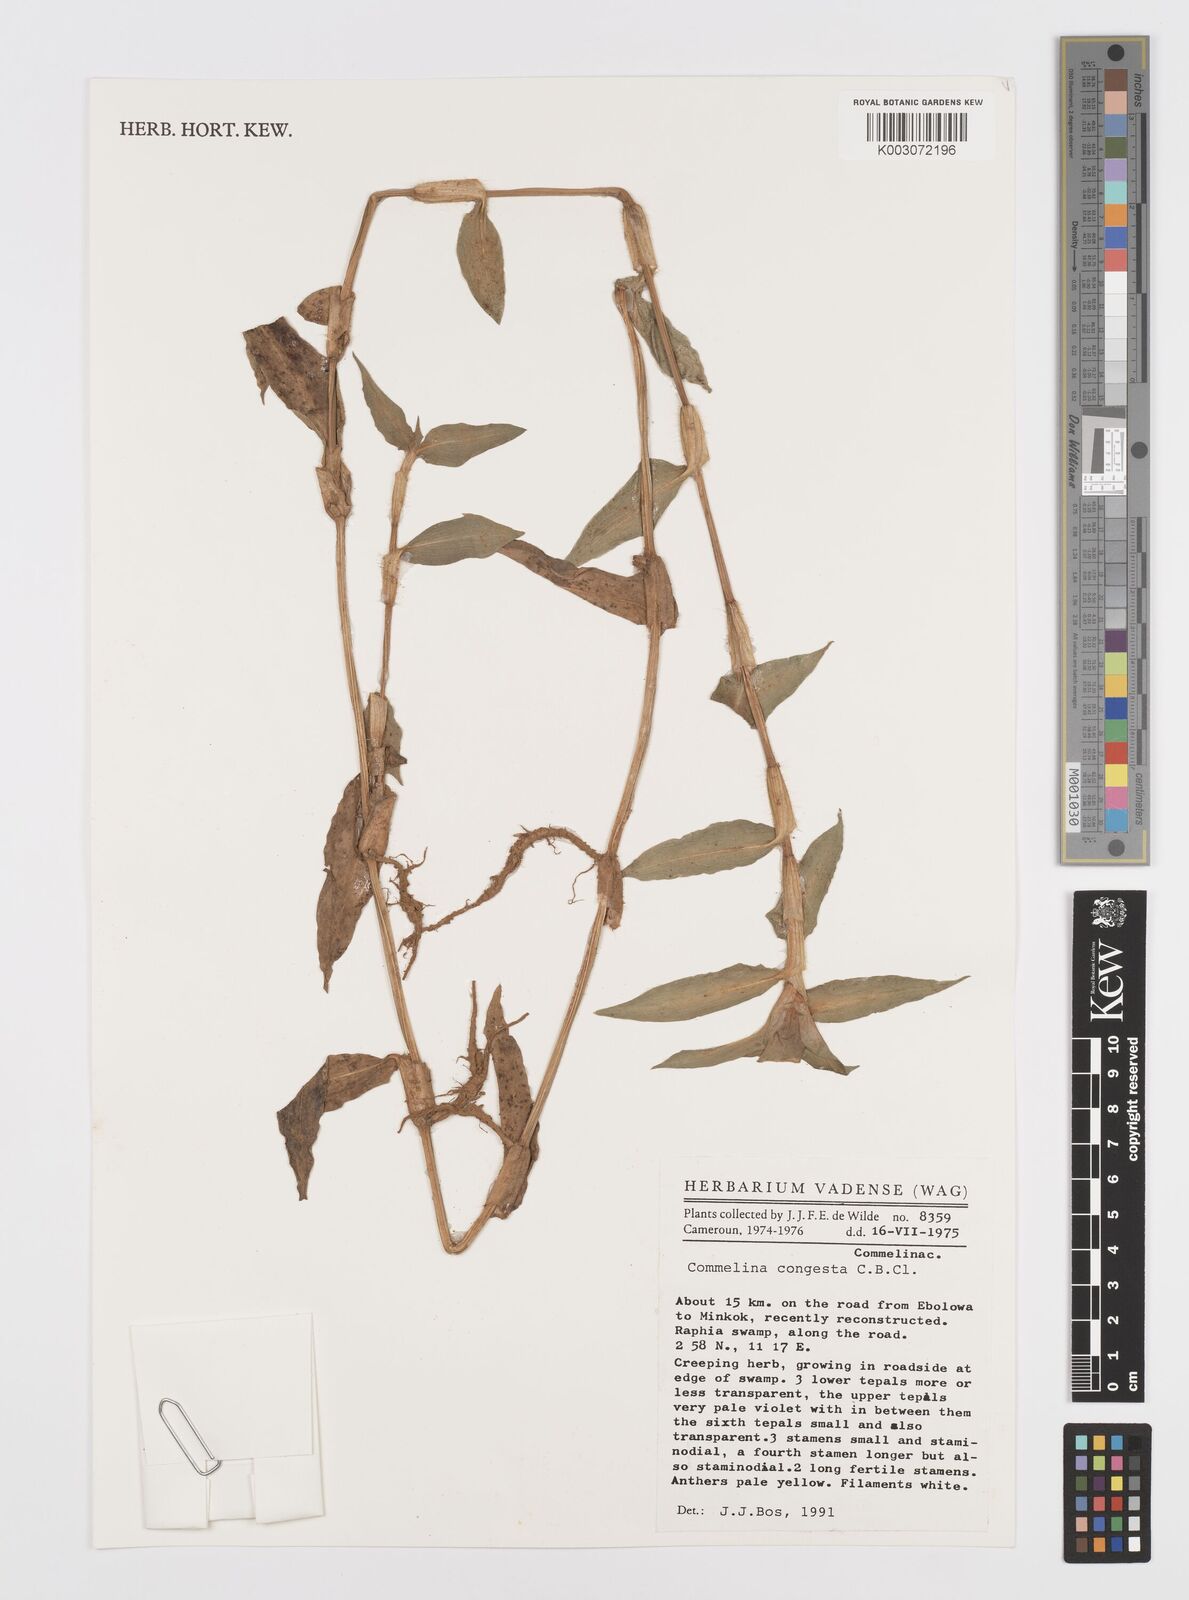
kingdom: Plantae
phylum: Tracheophyta
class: Liliopsida
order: Commelinales
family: Commelinaceae
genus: Commelina
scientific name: Commelina congesta
